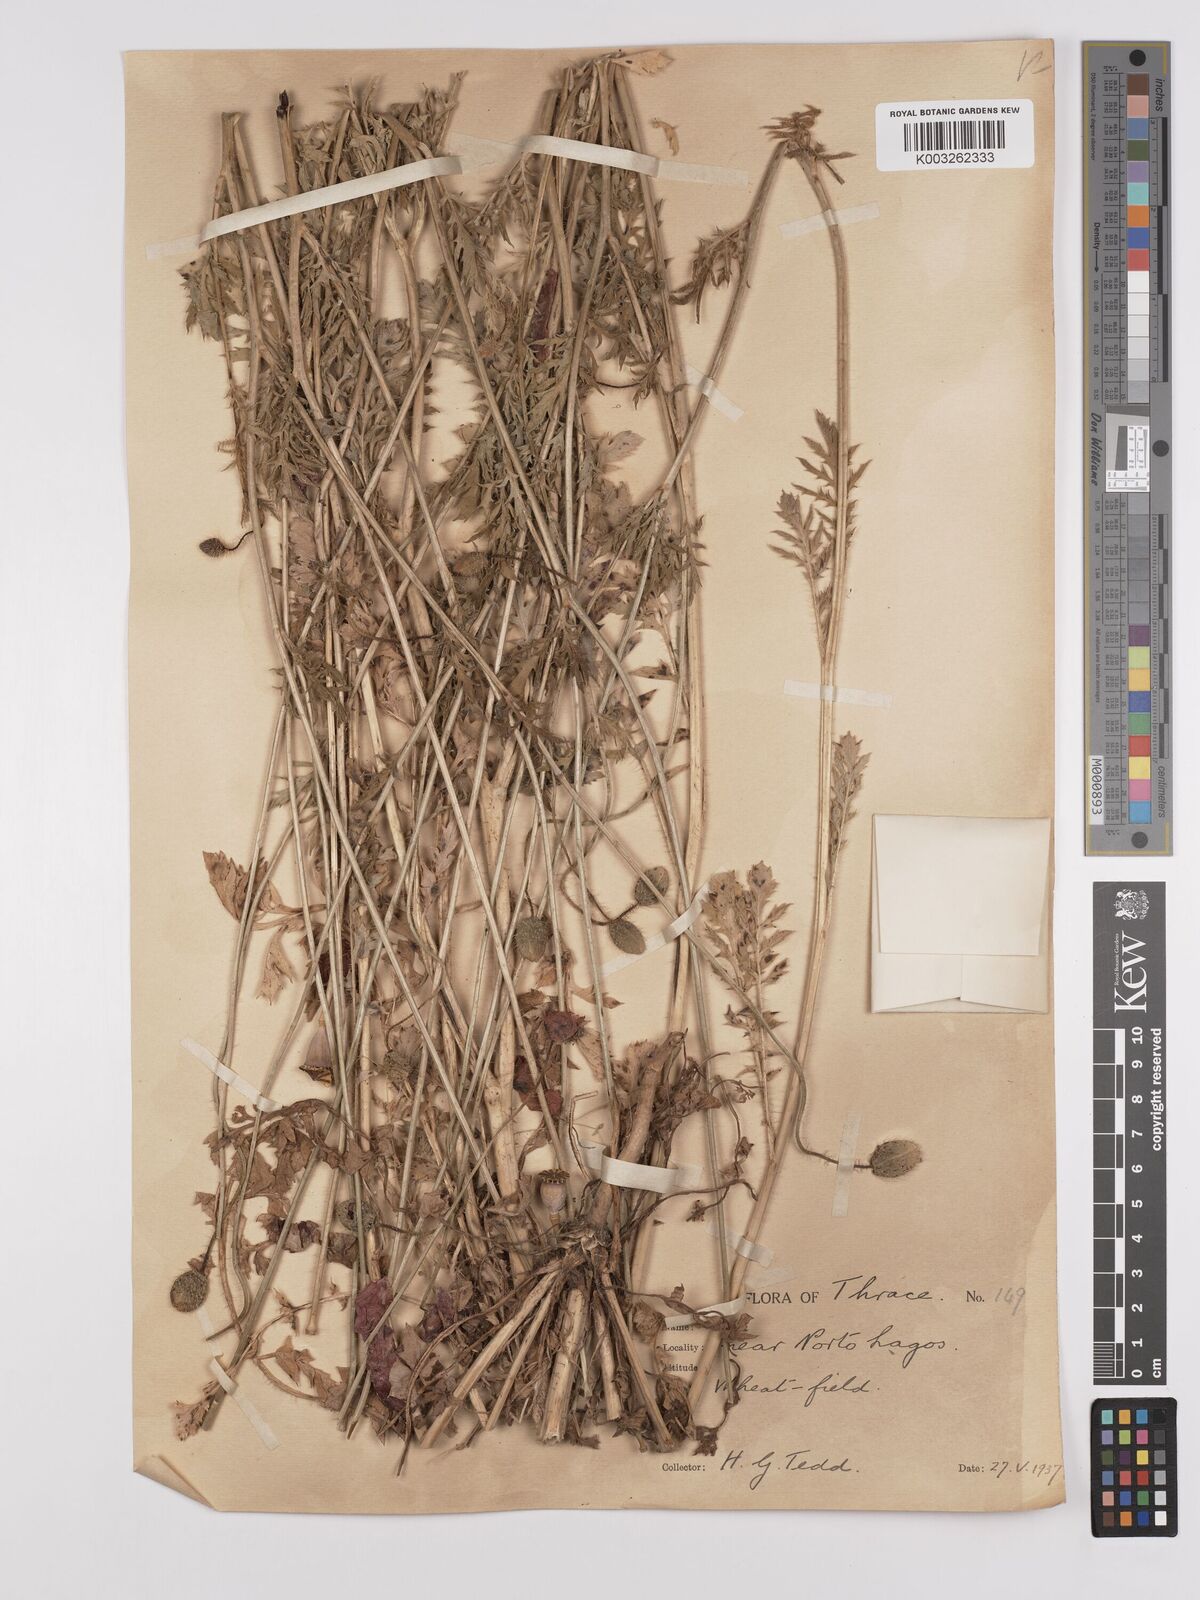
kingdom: Plantae
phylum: Tracheophyta
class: Magnoliopsida
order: Ranunculales
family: Papaveraceae
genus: Papaver
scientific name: Papaver rhoeas
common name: Corn poppy
